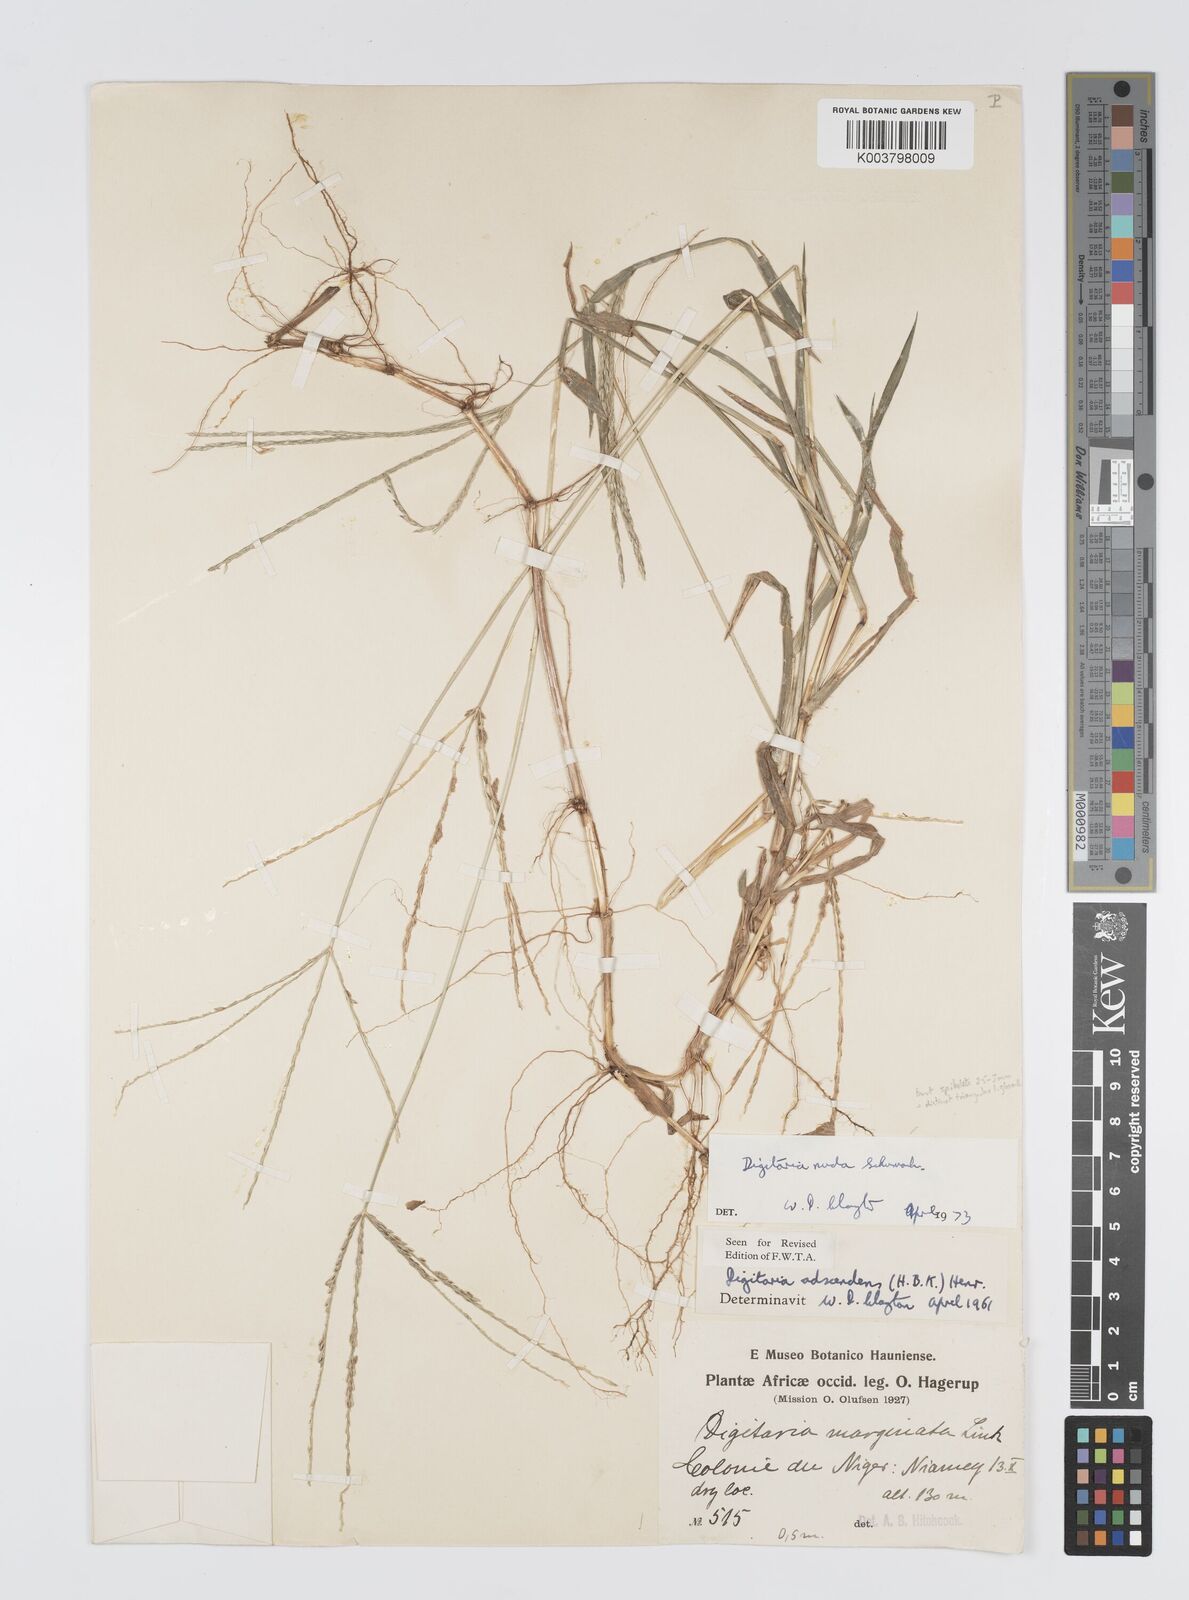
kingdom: Plantae
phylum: Tracheophyta
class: Liliopsida
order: Poales
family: Poaceae
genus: Digitaria
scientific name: Digitaria nuda
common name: Naked crabgrass
